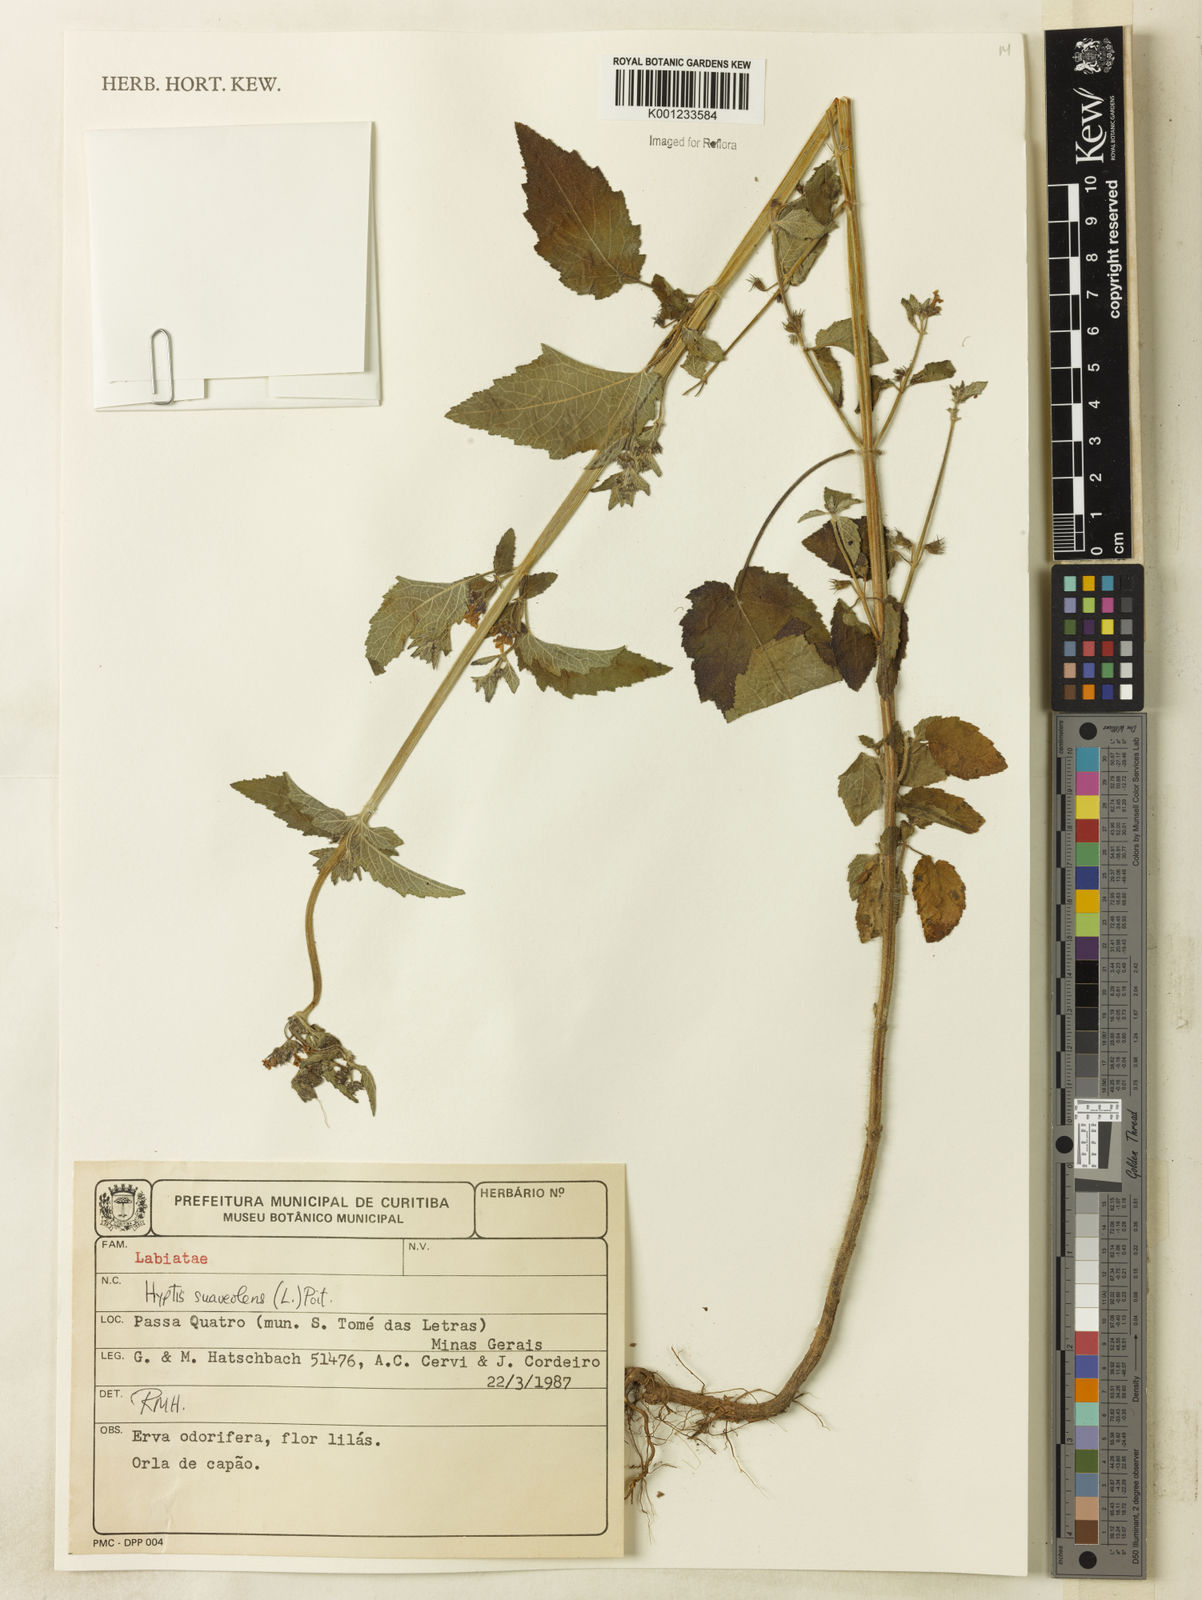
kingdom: Plantae
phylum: Tracheophyta
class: Magnoliopsida
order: Lamiales
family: Lamiaceae
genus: Mesosphaerum
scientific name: Mesosphaerum suaveolens
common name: Pignut
